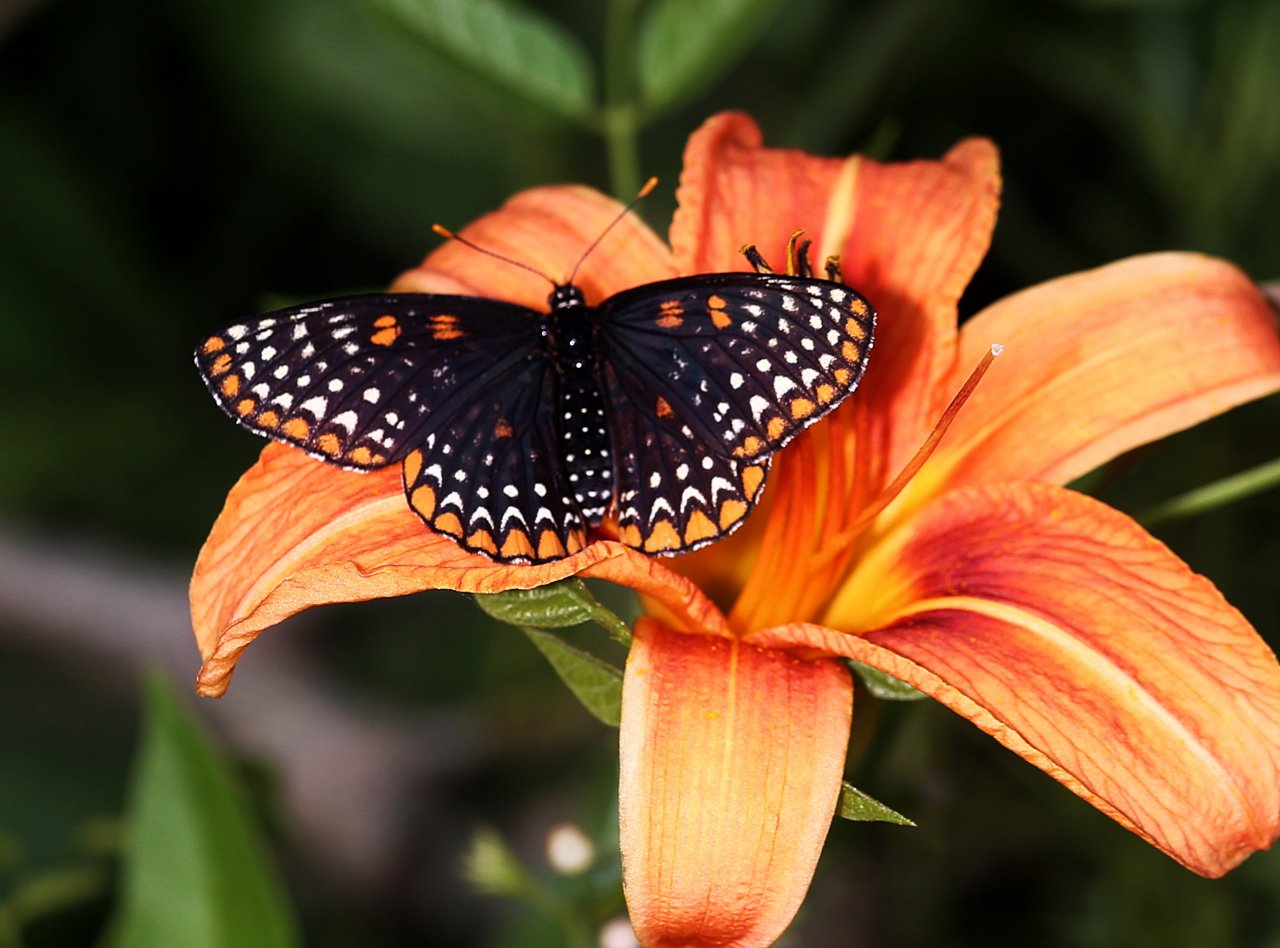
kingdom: Animalia
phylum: Arthropoda
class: Insecta
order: Lepidoptera
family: Nymphalidae
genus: Euphydryas
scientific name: Euphydryas phaeton
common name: Baltimore Checkerspot
